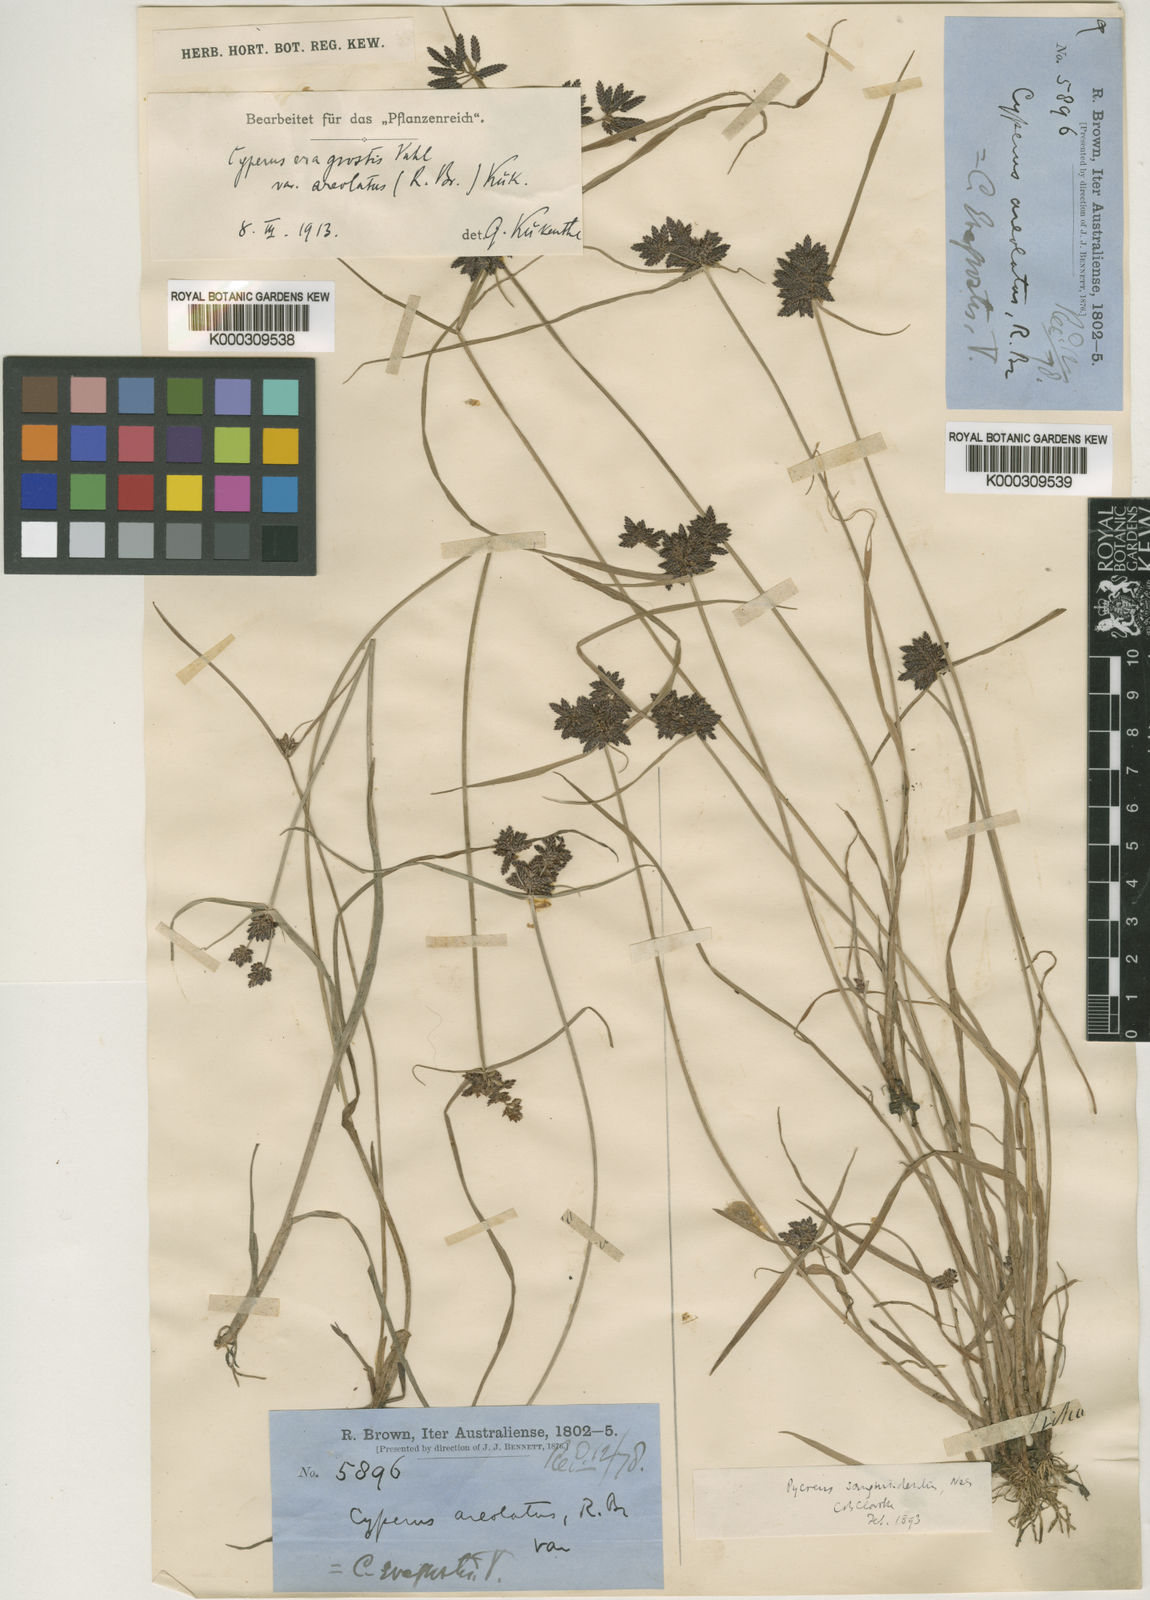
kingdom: Plantae
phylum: Tracheophyta
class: Liliopsida
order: Poales
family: Cyperaceae
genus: Cyperus
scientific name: Cyperus sanguinolentus
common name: Purpleglume flatsedge
